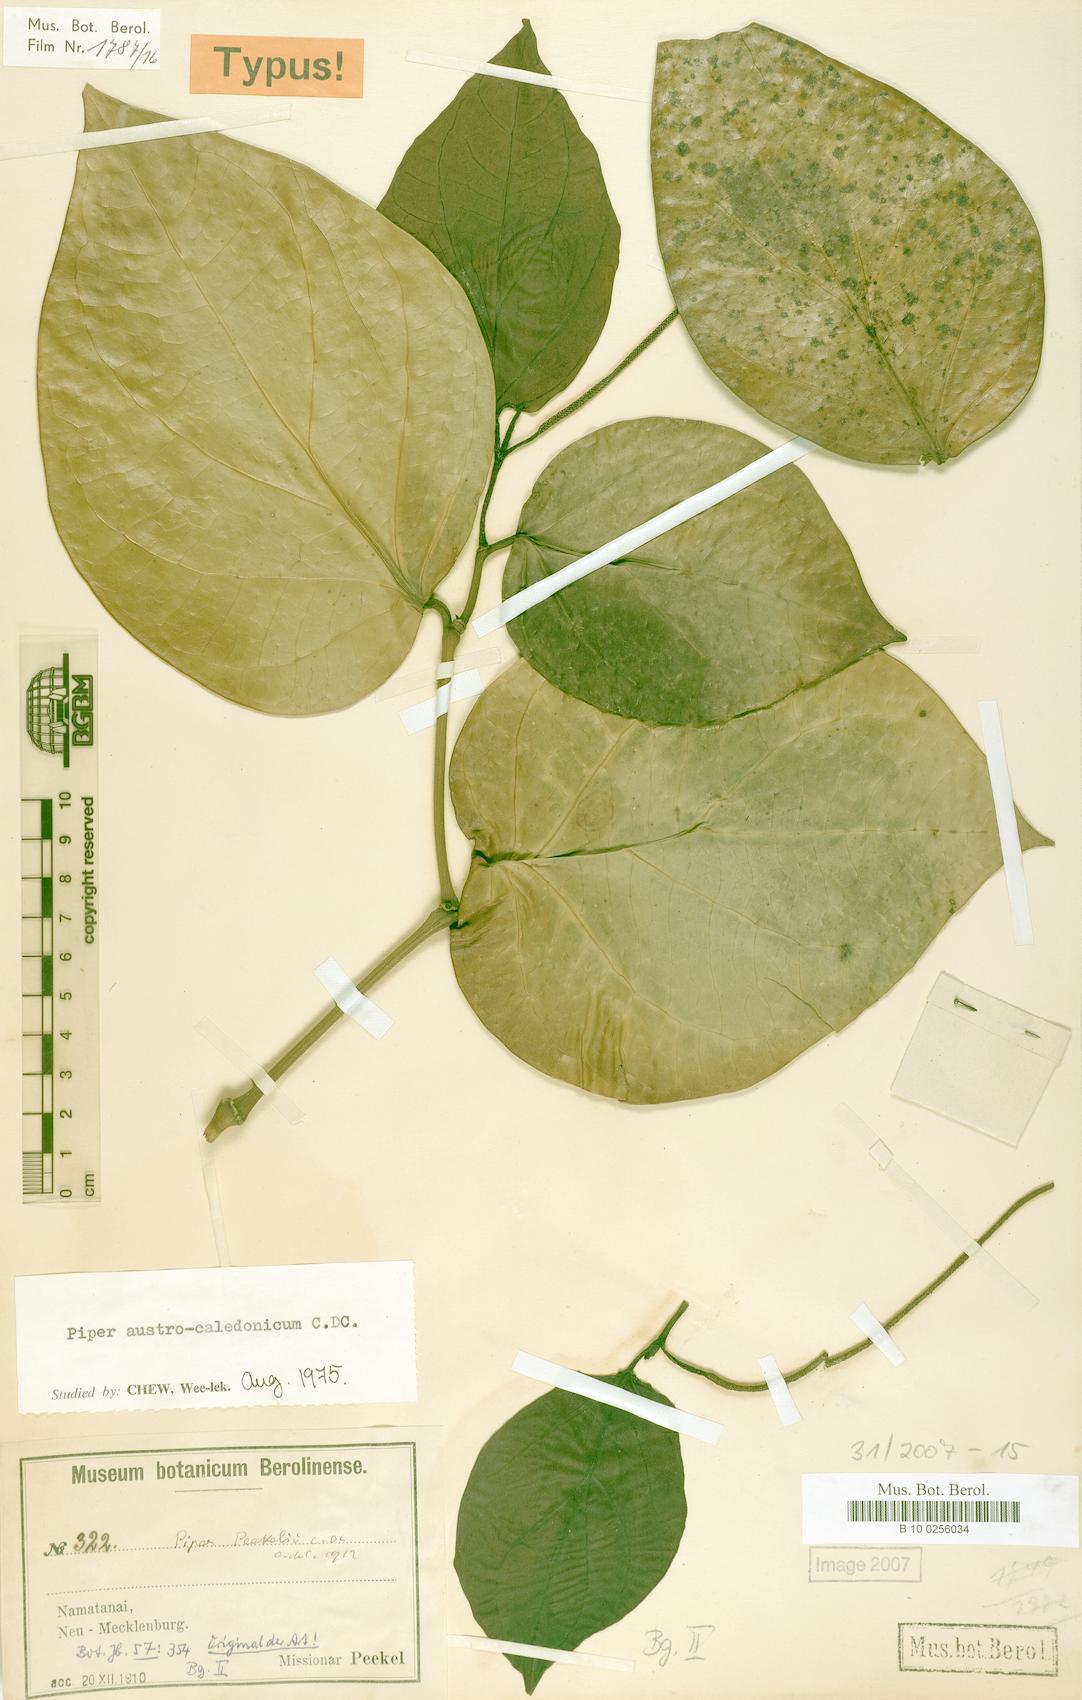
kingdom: Plantae
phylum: Tracheophyta
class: Magnoliopsida
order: Piperales
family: Piperaceae
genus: Piper
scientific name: Piper insectifugum
